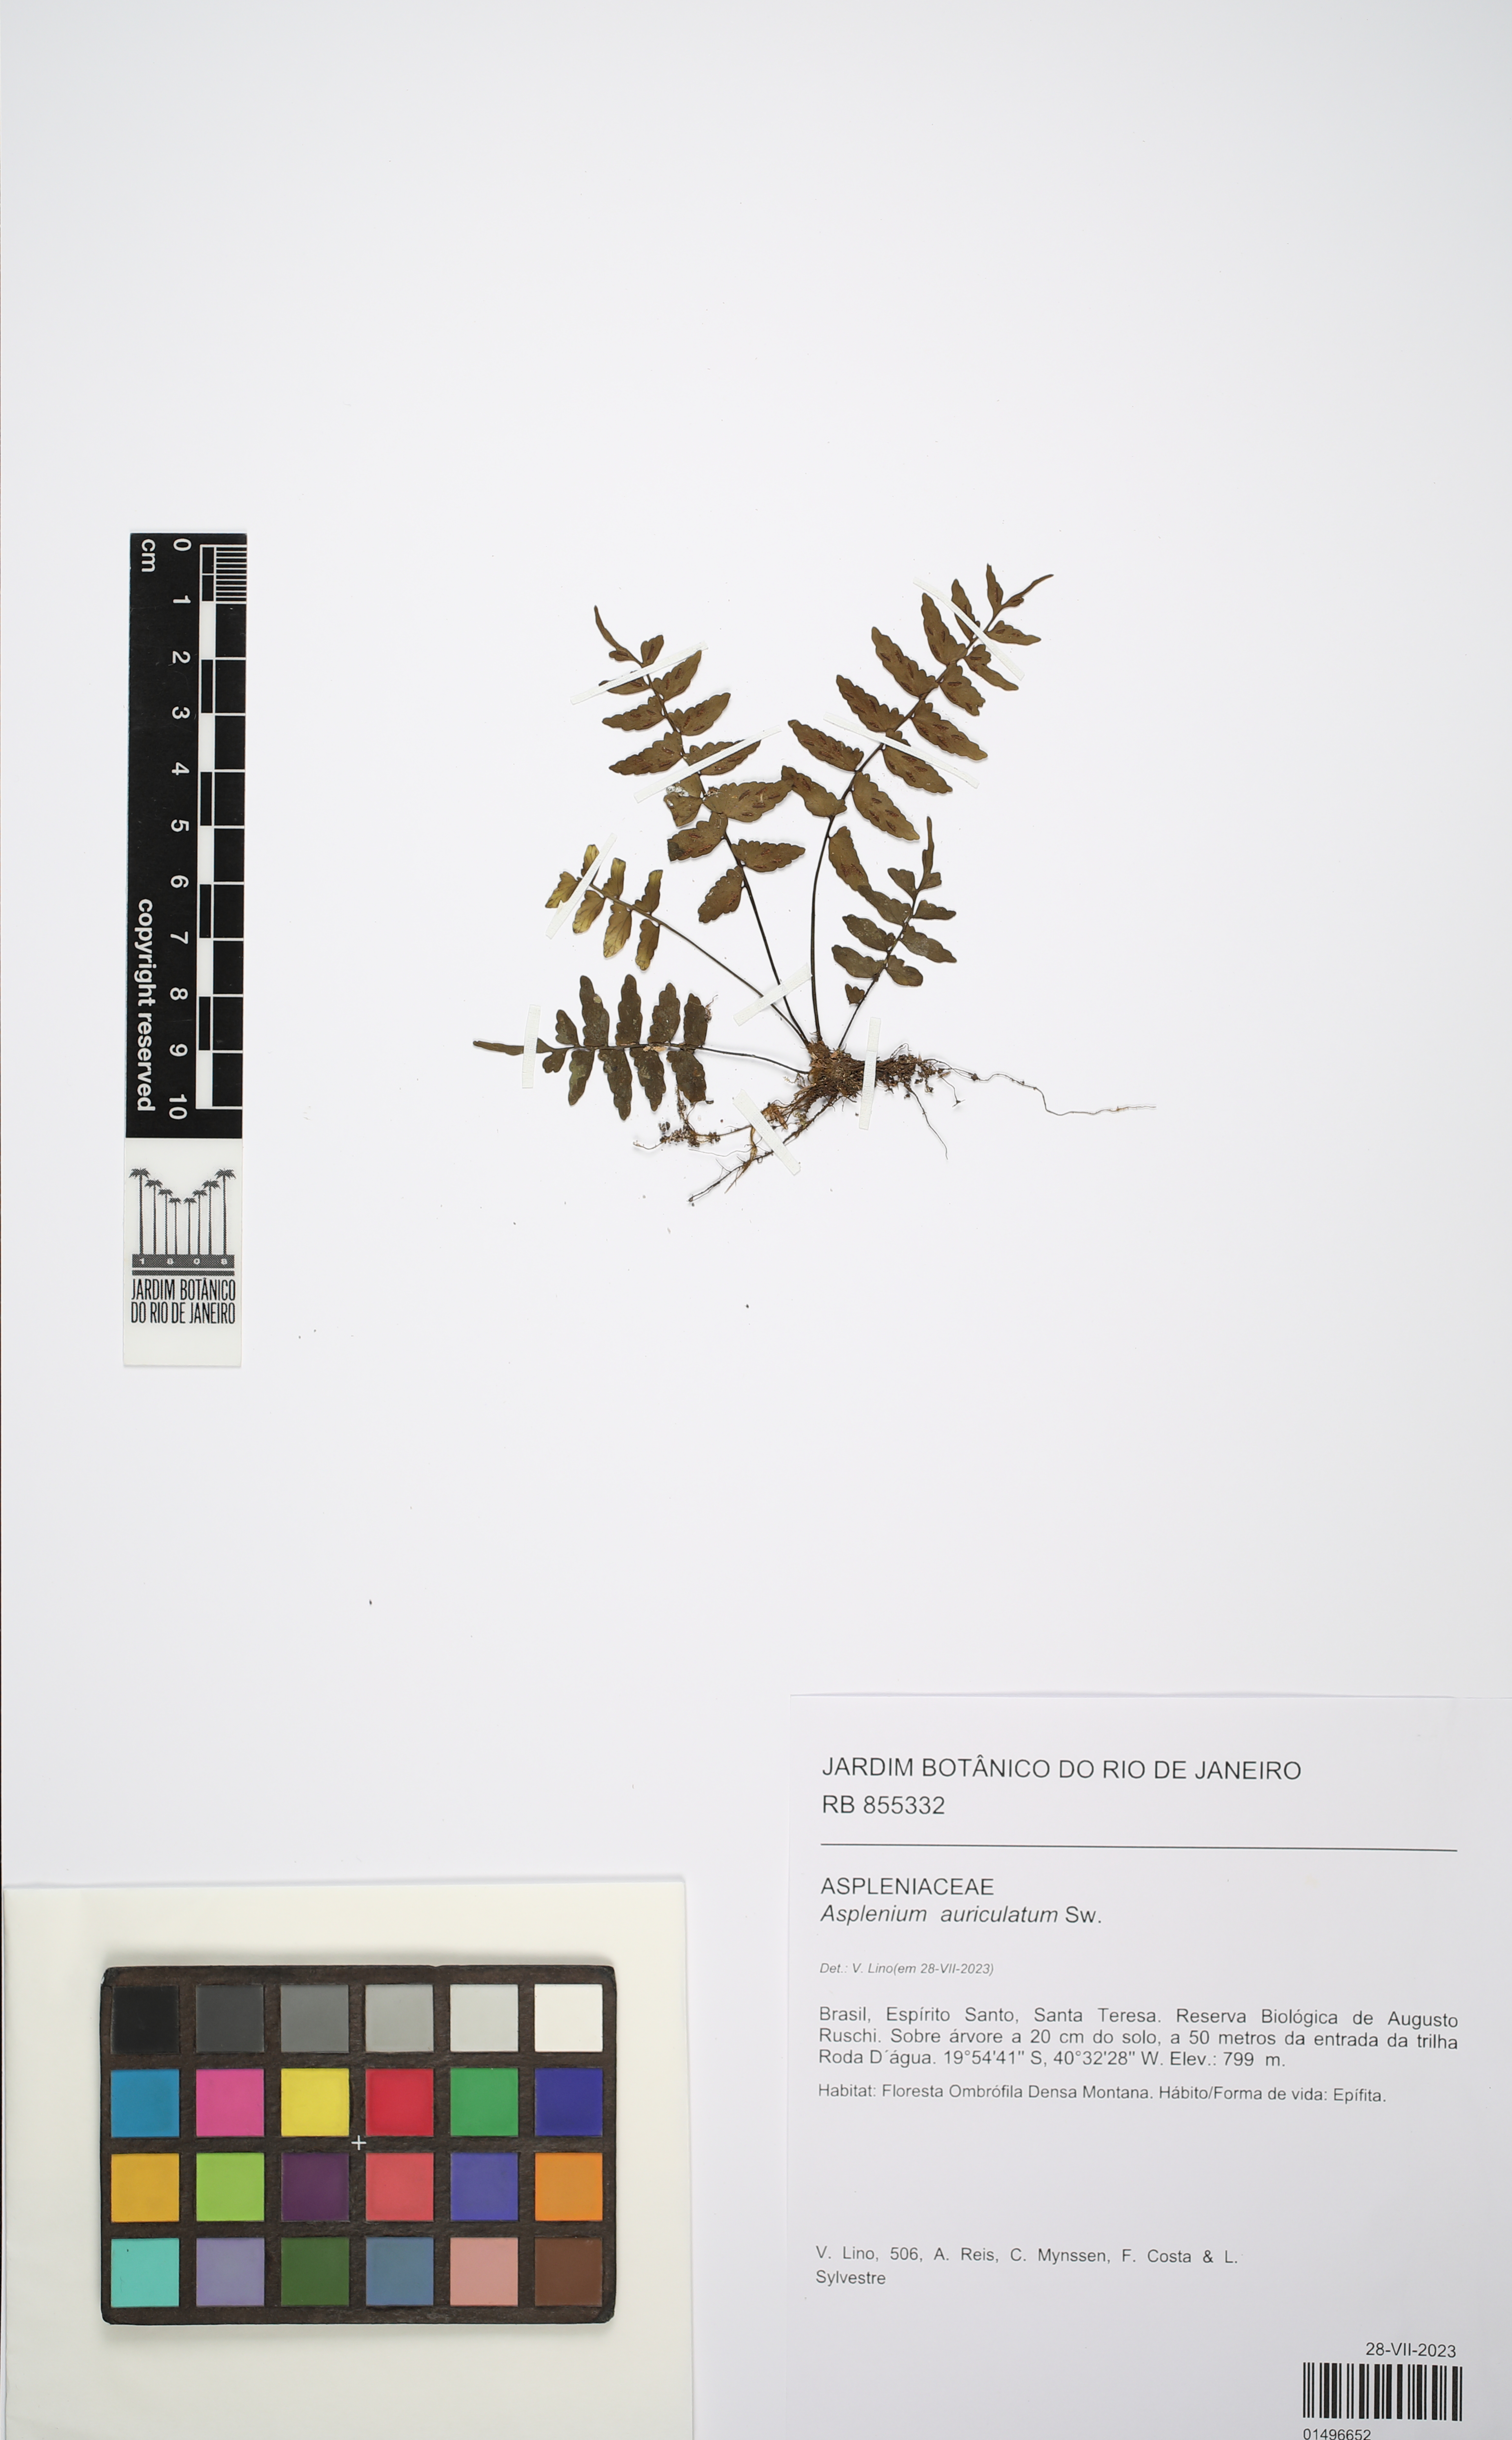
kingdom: Plantae
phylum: Tracheophyta
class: Polypodiopsida
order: Polypodiales
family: Aspleniaceae
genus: Asplenium
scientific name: Asplenium auriculatum
